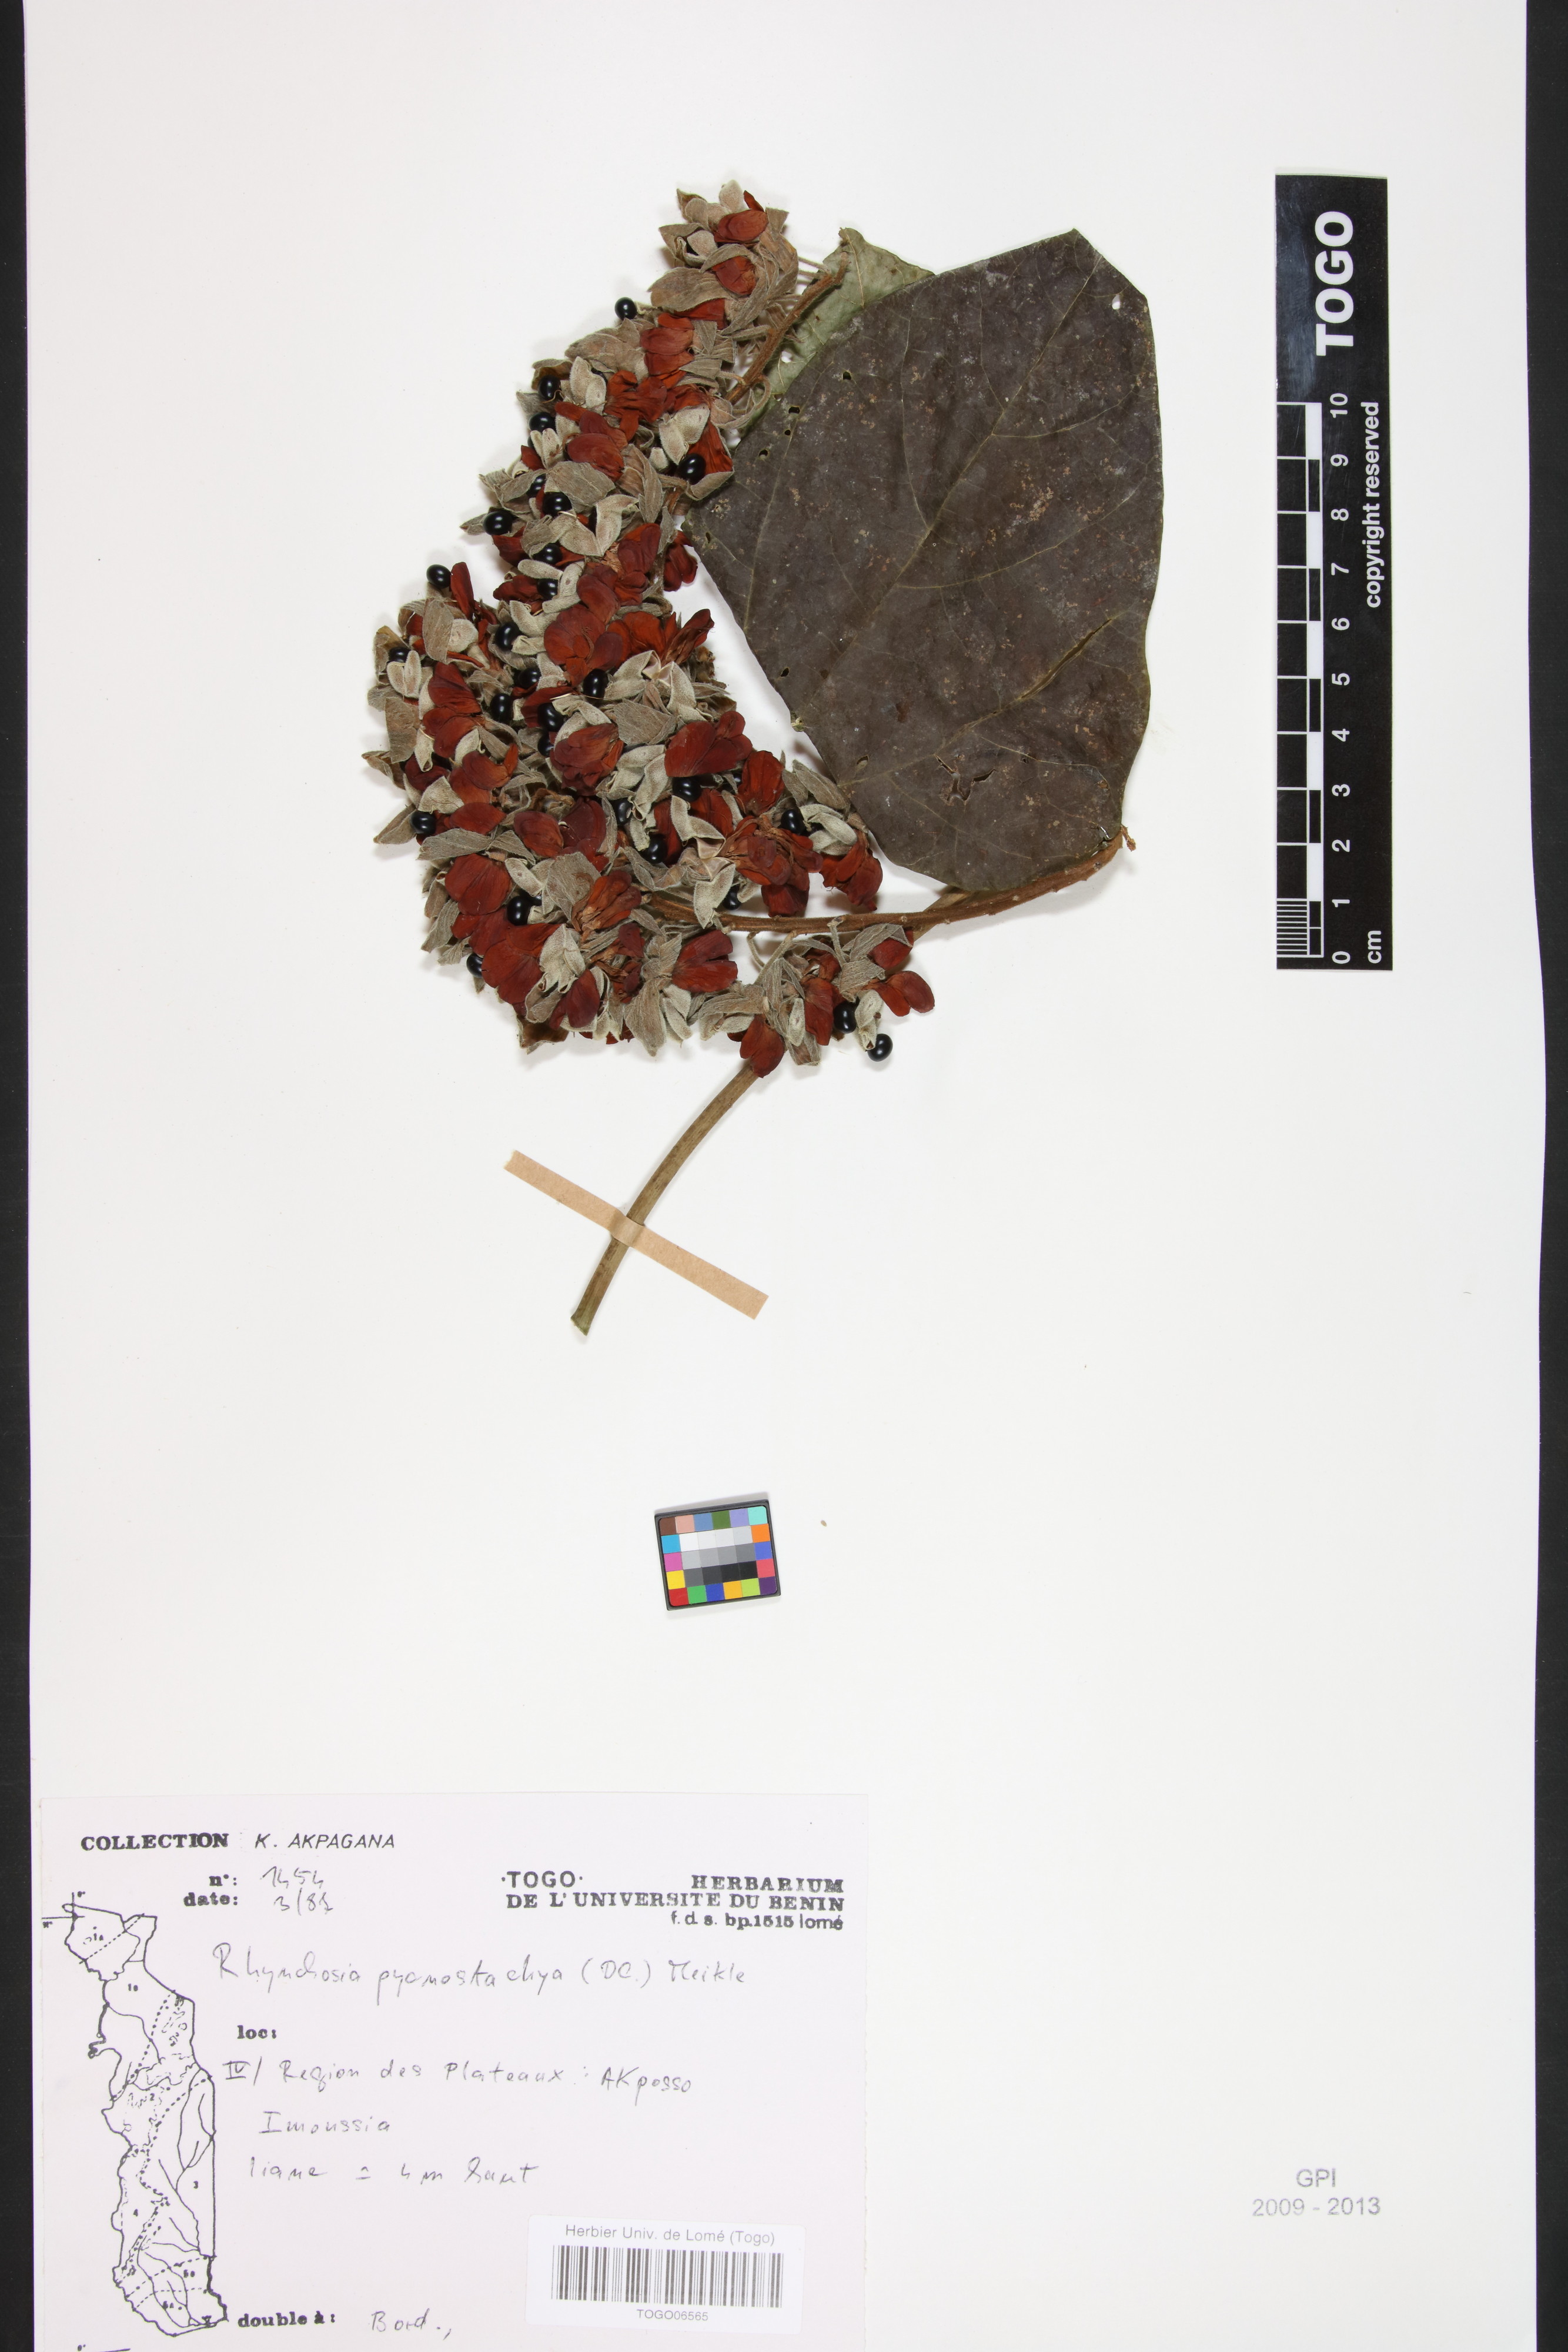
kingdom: Plantae
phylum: Tracheophyta
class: Magnoliopsida
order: Fabales
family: Fabaceae
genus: Rhynchosia
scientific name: Rhynchosia pycnostachya
